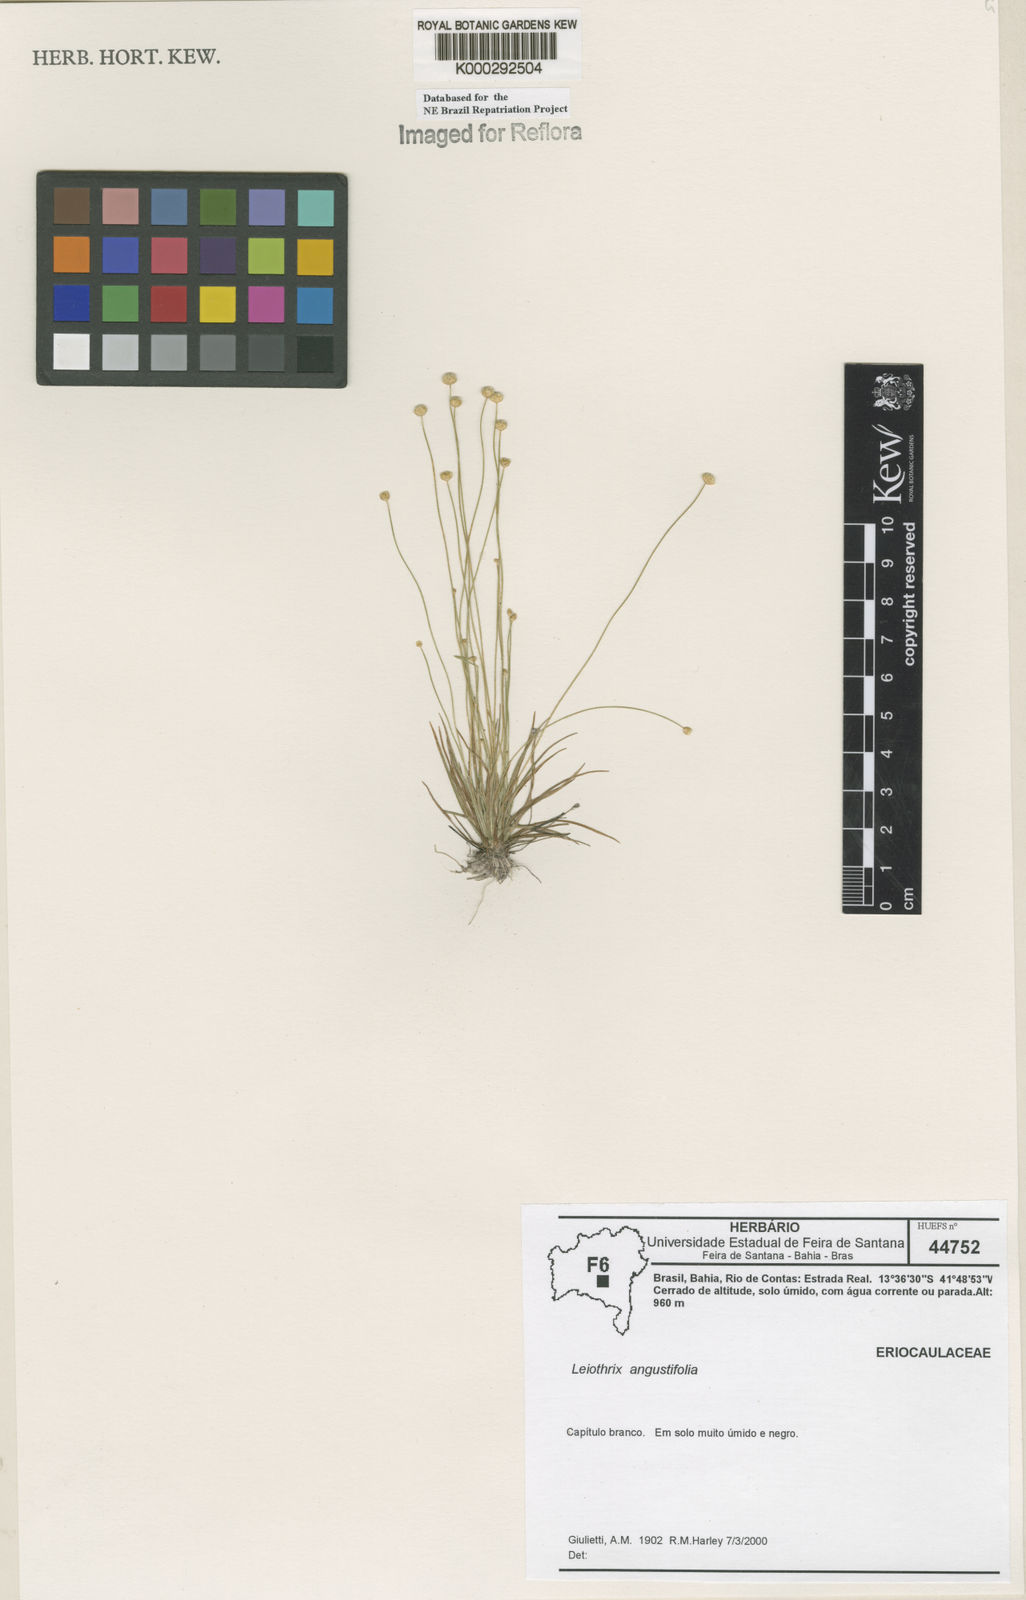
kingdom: Plantae
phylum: Tracheophyta
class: Liliopsida
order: Poales
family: Eriocaulaceae
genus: Leiothrix
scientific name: Leiothrix angustifolia
